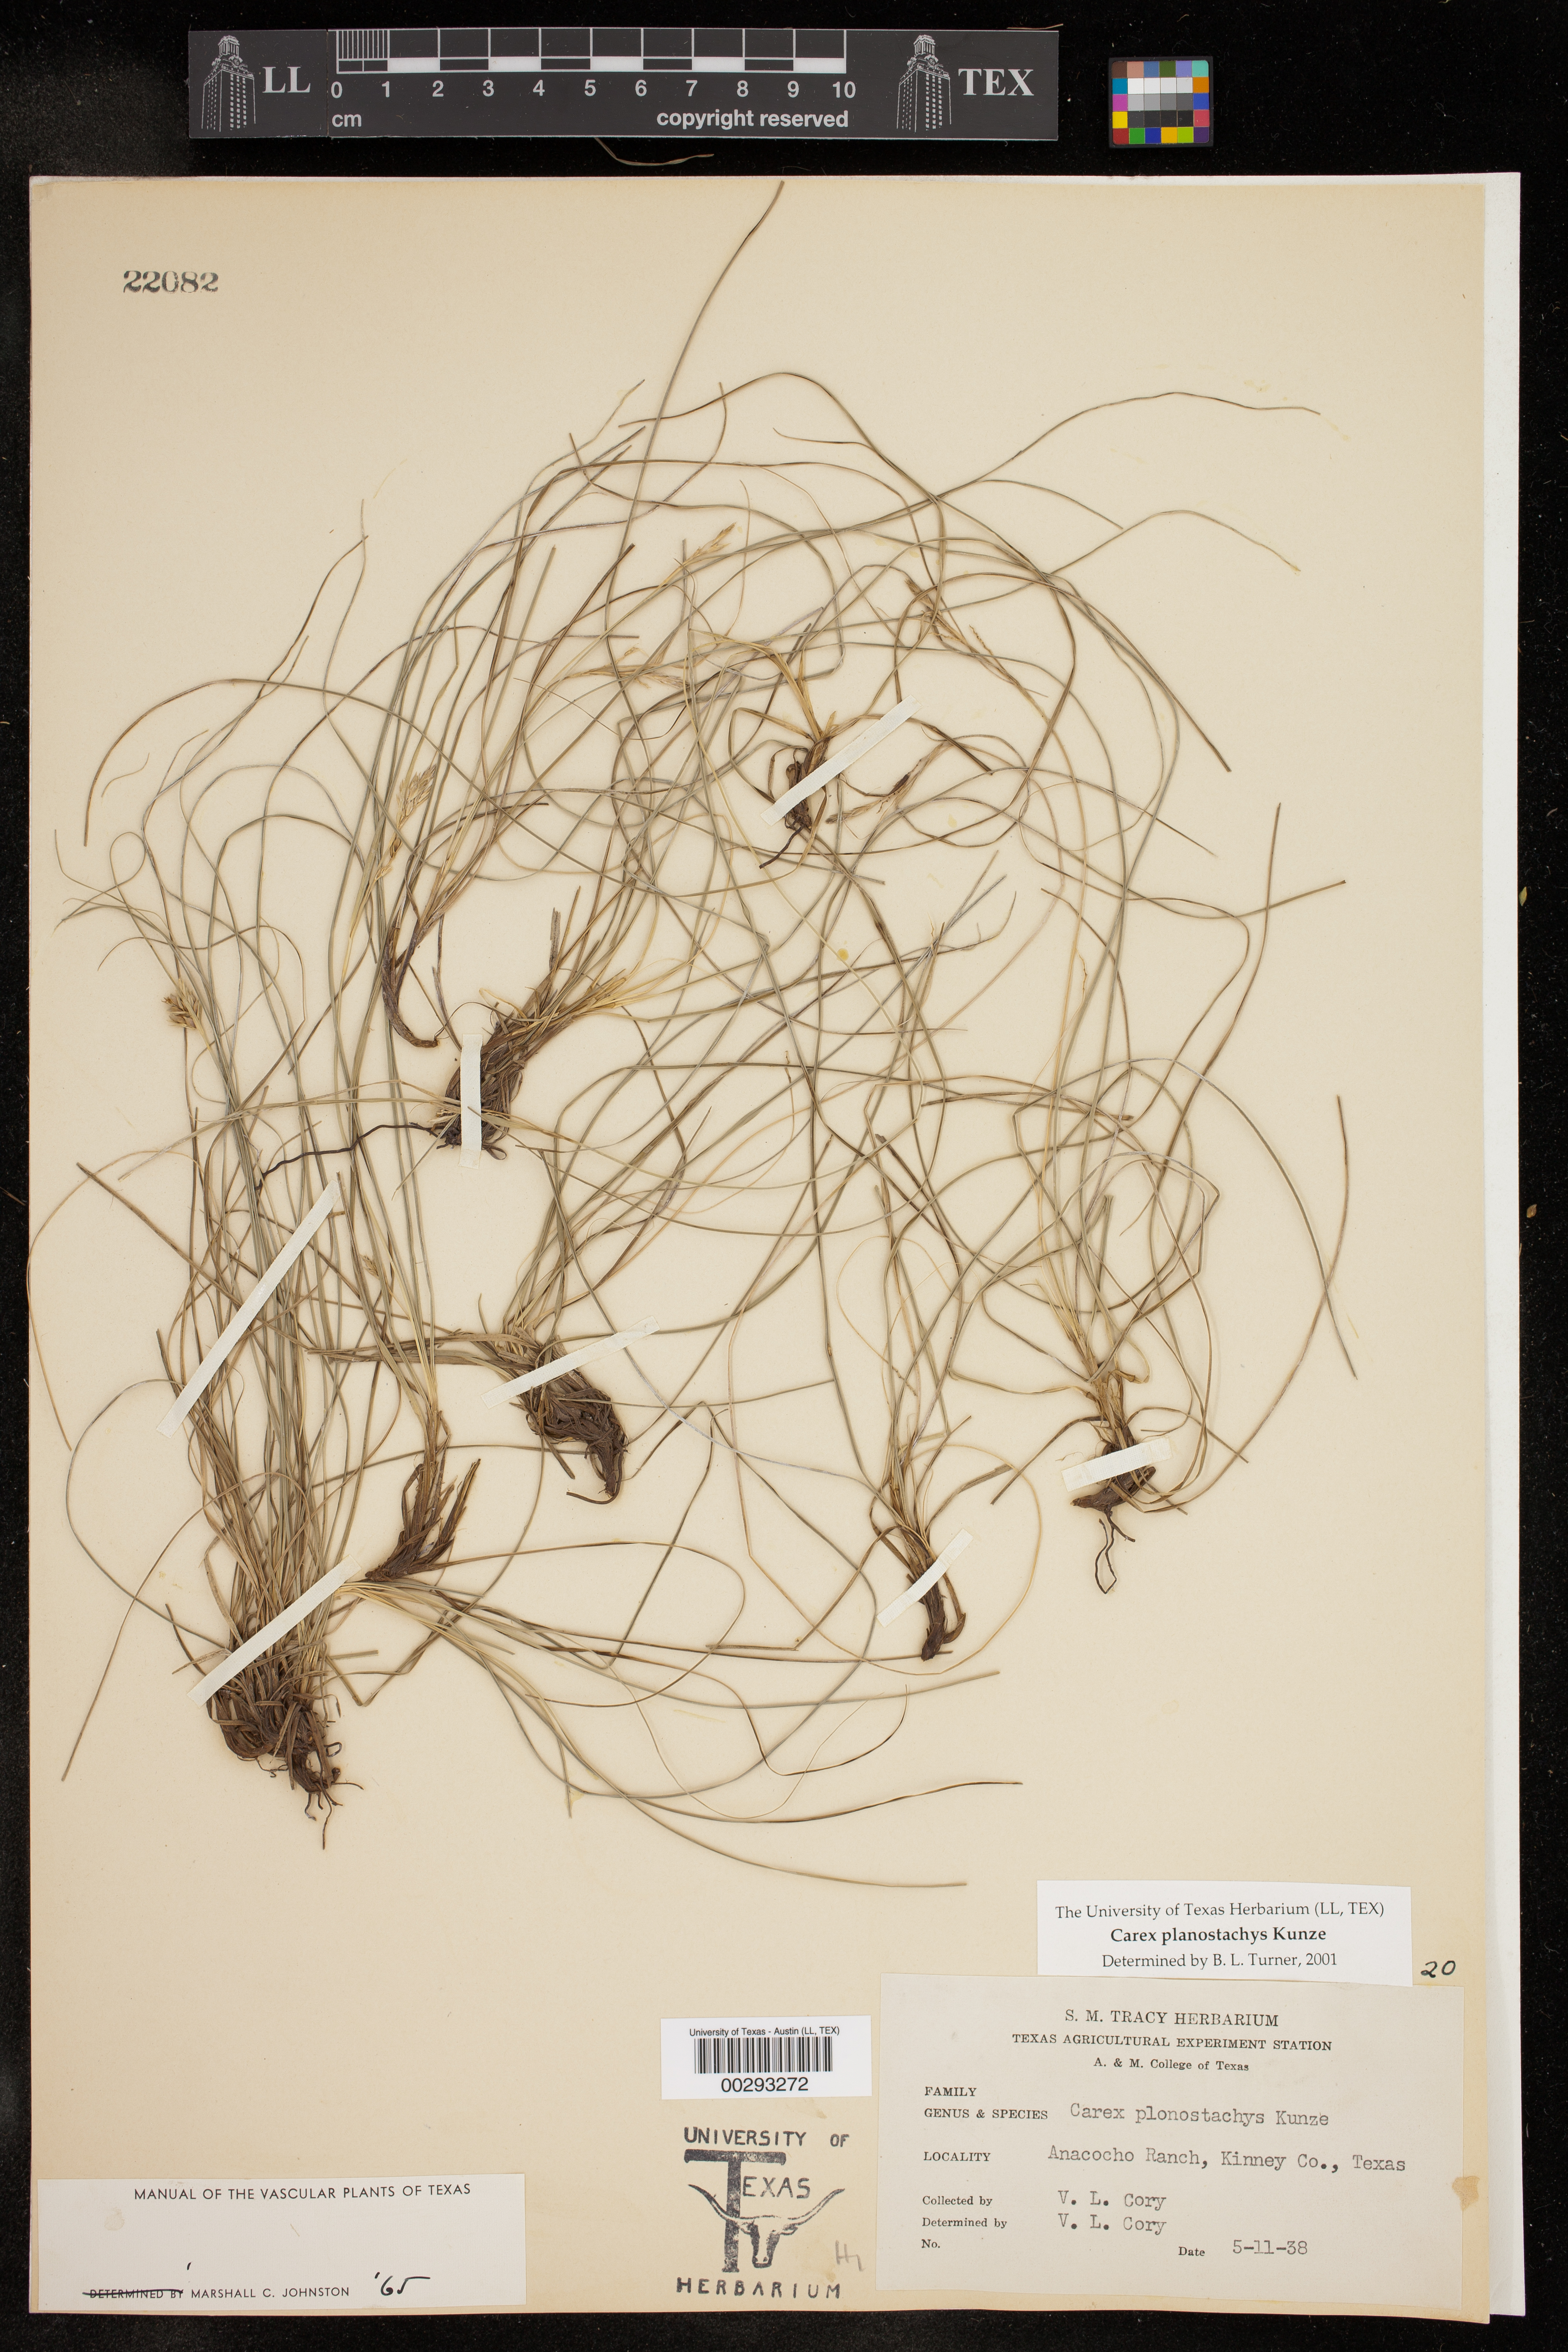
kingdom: Plantae
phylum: Tracheophyta
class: Liliopsida
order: Poales
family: Cyperaceae
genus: Carex
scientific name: Carex planostachys
